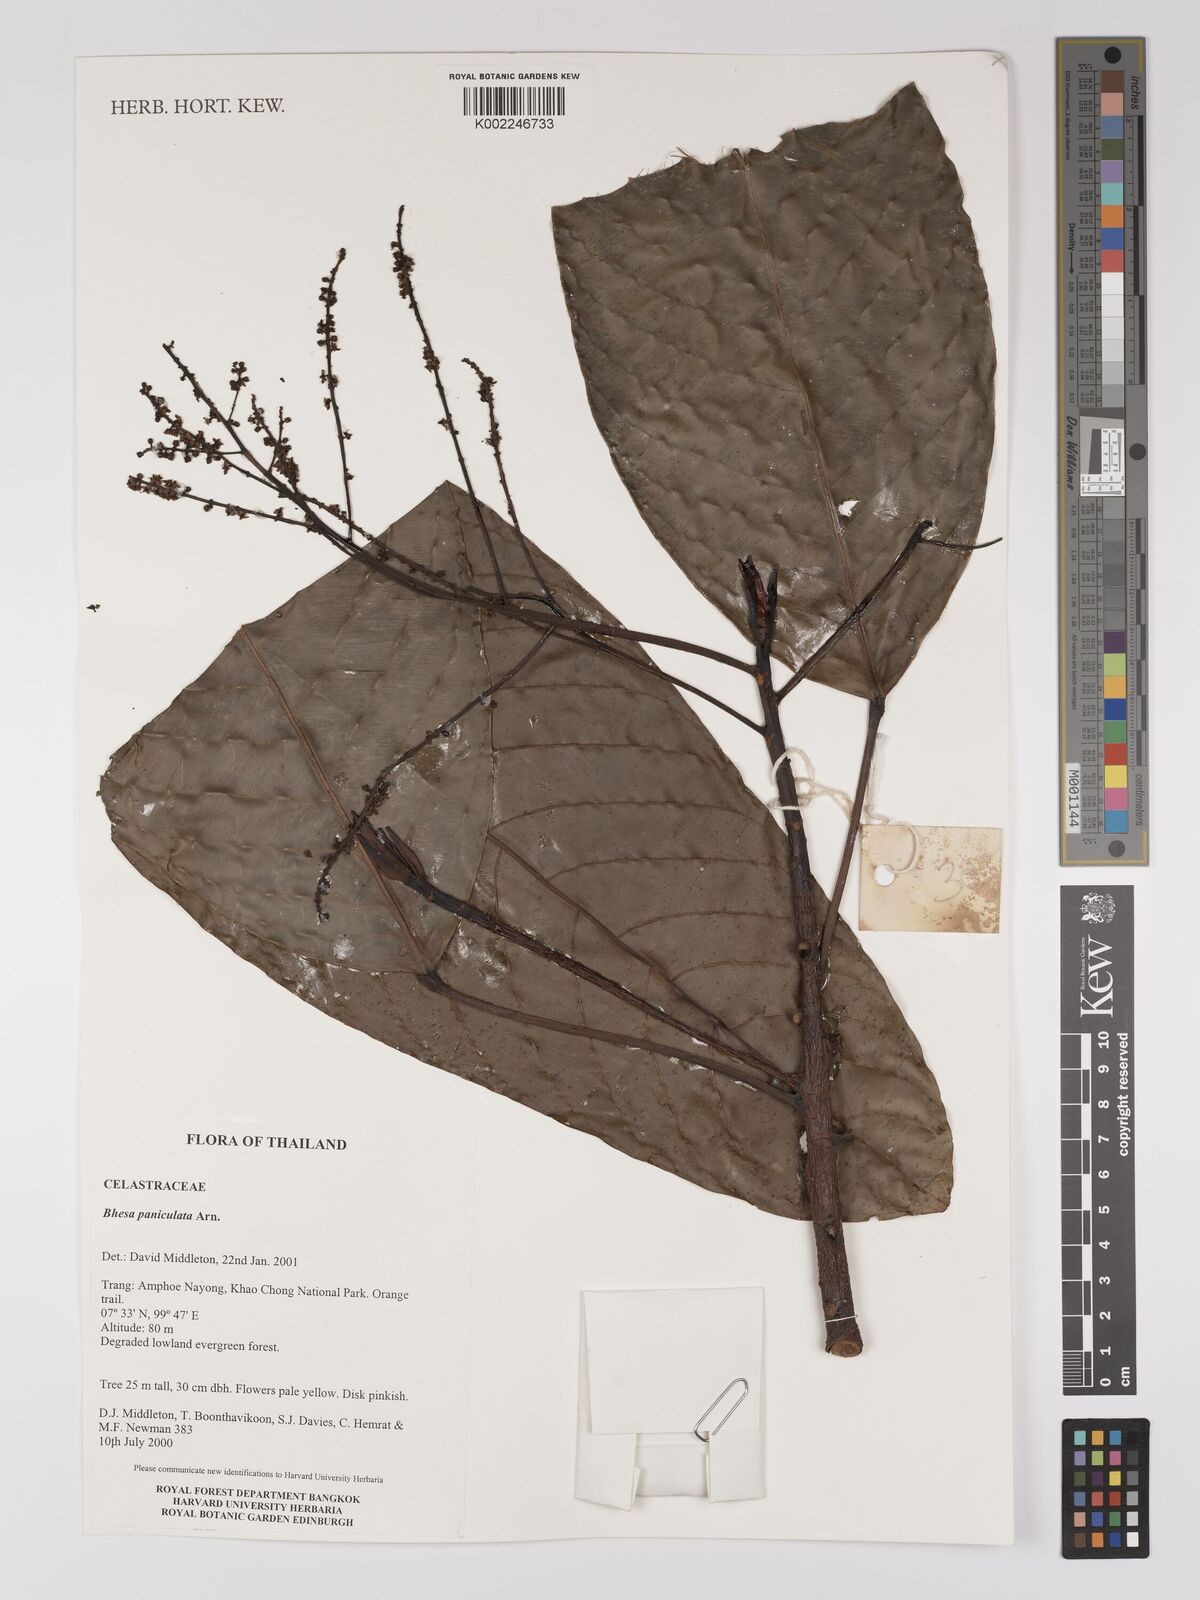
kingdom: Plantae
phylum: Tracheophyta
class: Magnoliopsida
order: Malpighiales
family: Centroplacaceae
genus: Bhesa
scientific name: Bhesa paniculata
